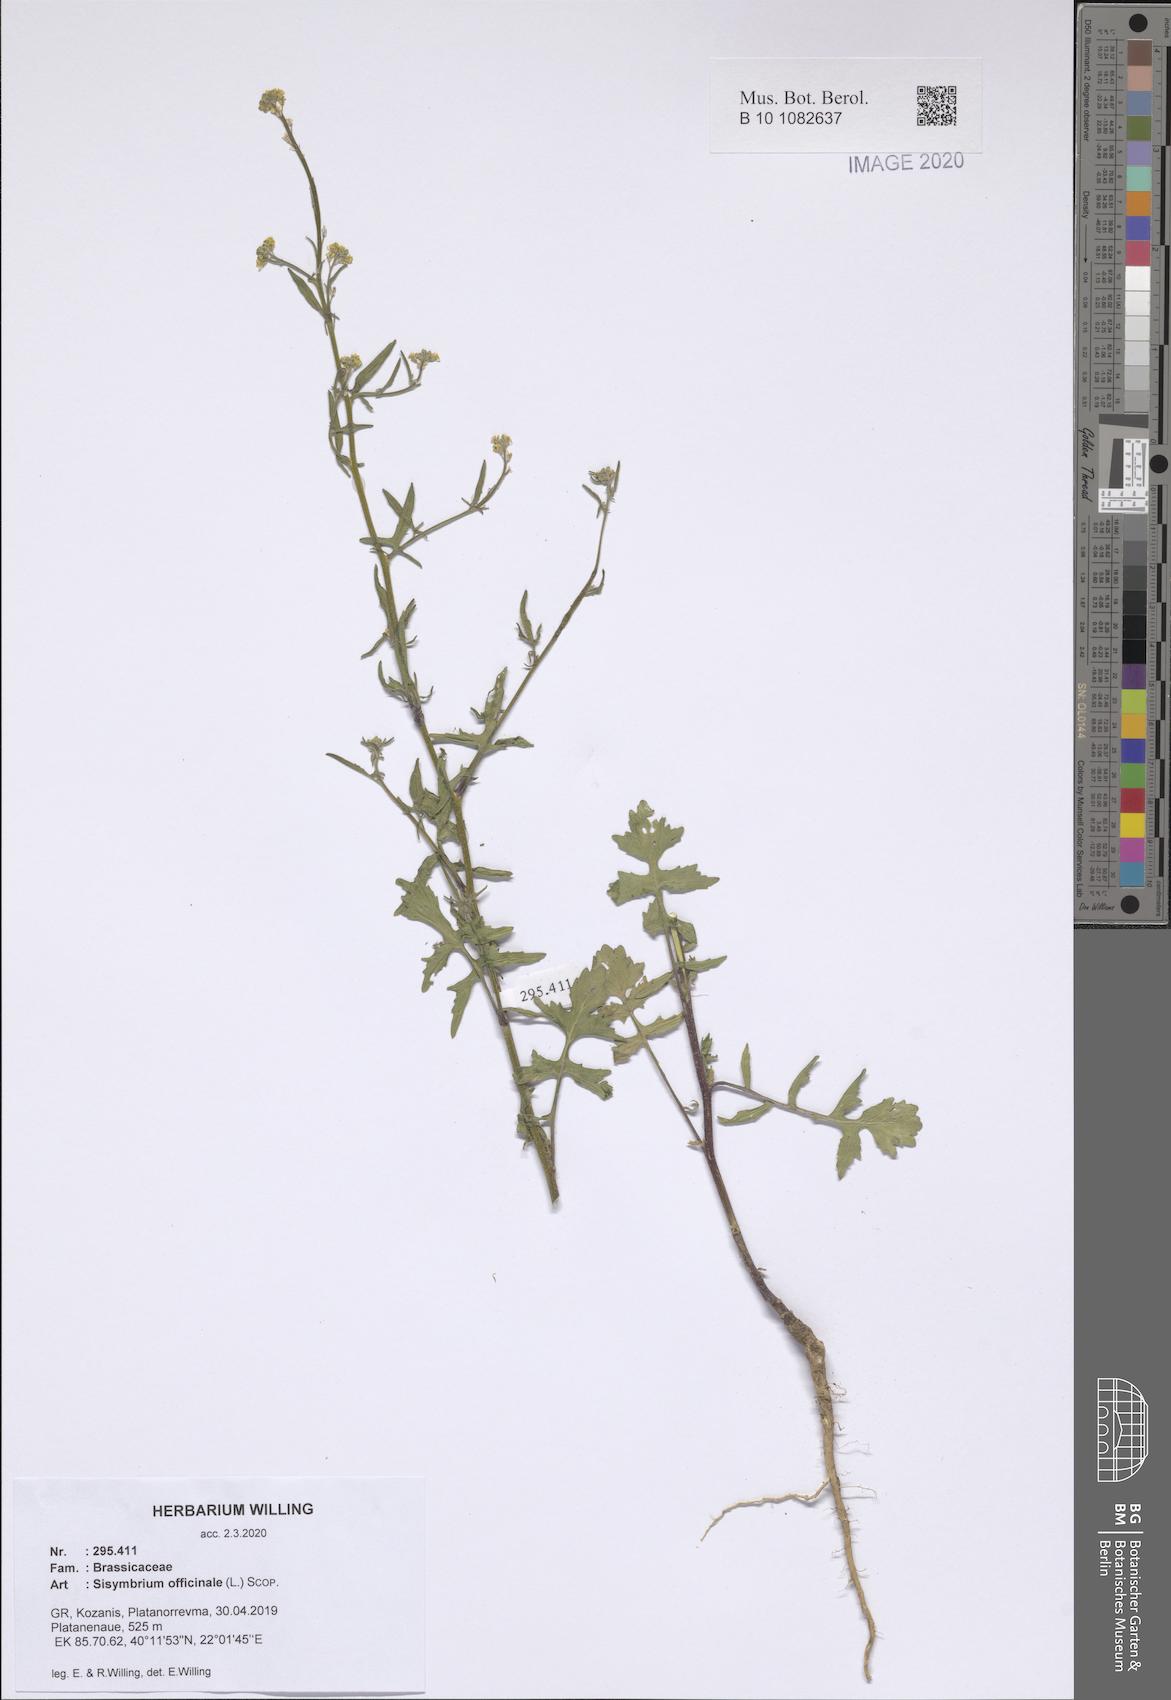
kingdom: Plantae
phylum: Tracheophyta
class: Magnoliopsida
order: Brassicales
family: Brassicaceae
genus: Sisymbrium
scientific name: Sisymbrium officinale
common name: Hedge mustard
